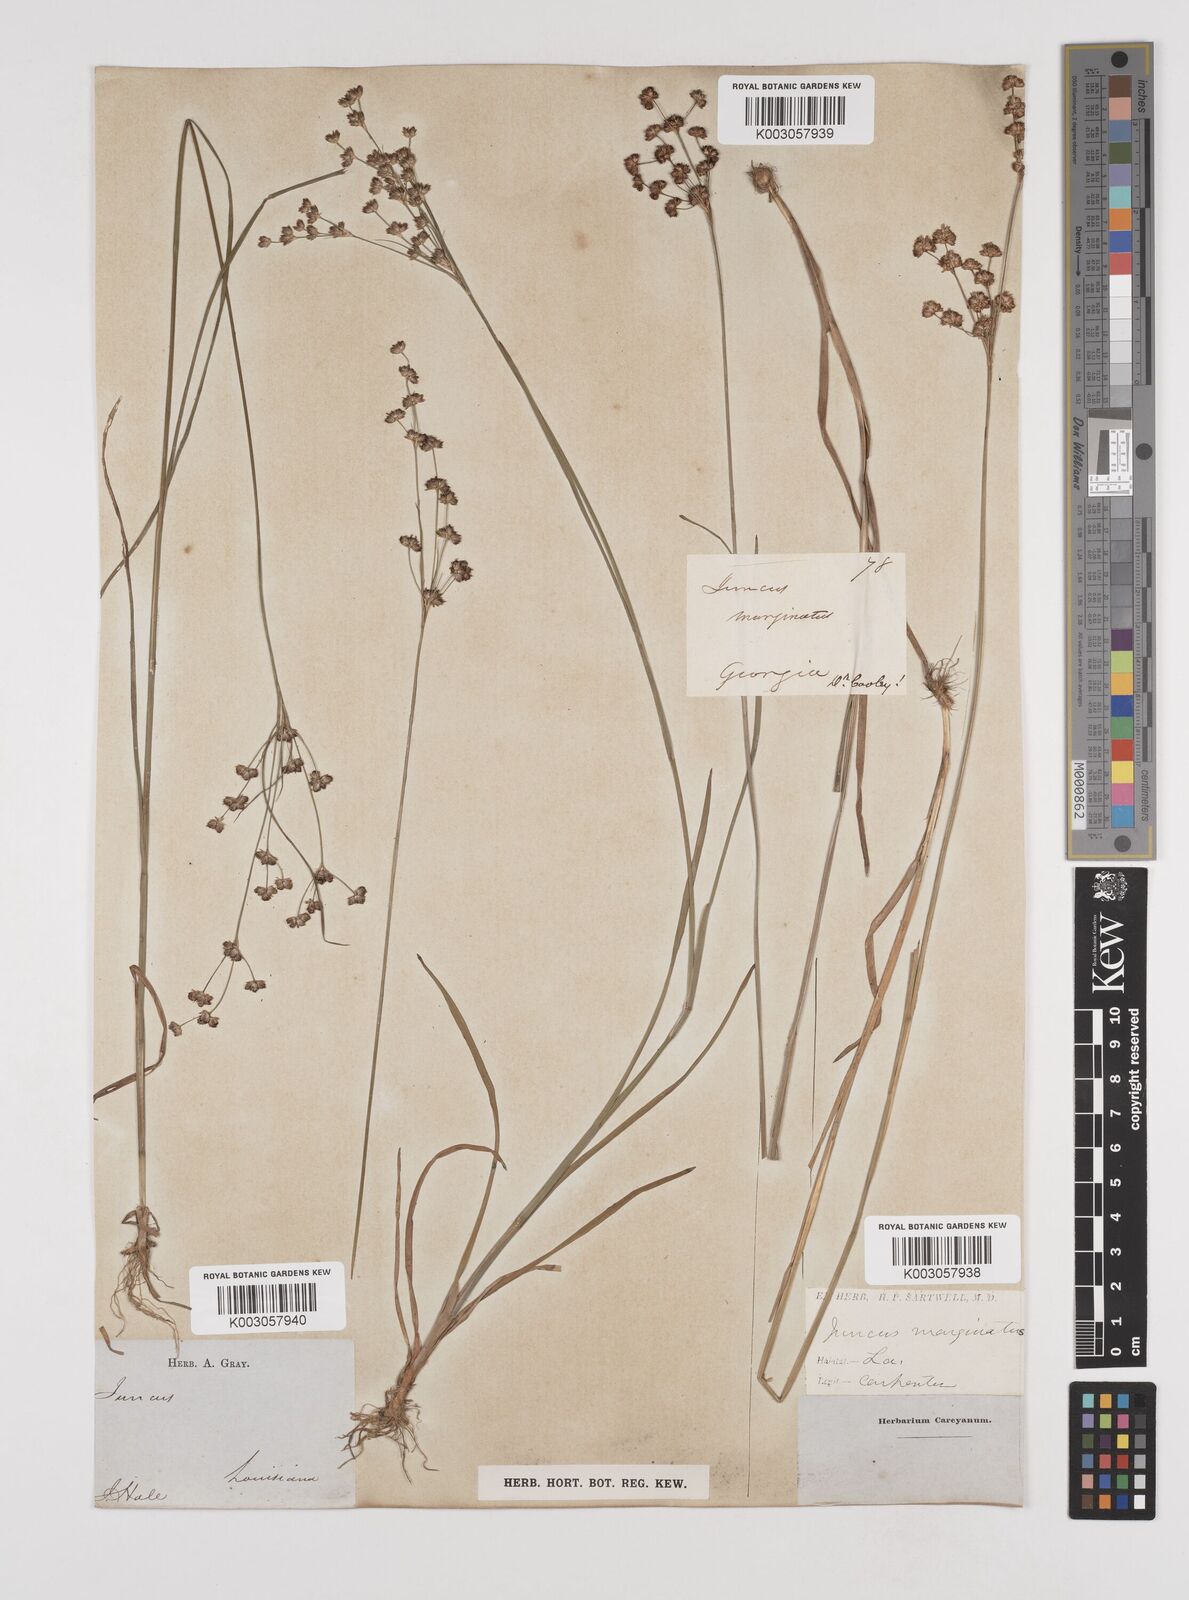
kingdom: Plantae
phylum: Tracheophyta
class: Liliopsida
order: Poales
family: Juncaceae
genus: Juncus
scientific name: Juncus marginatus
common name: Grass-leaf rush
